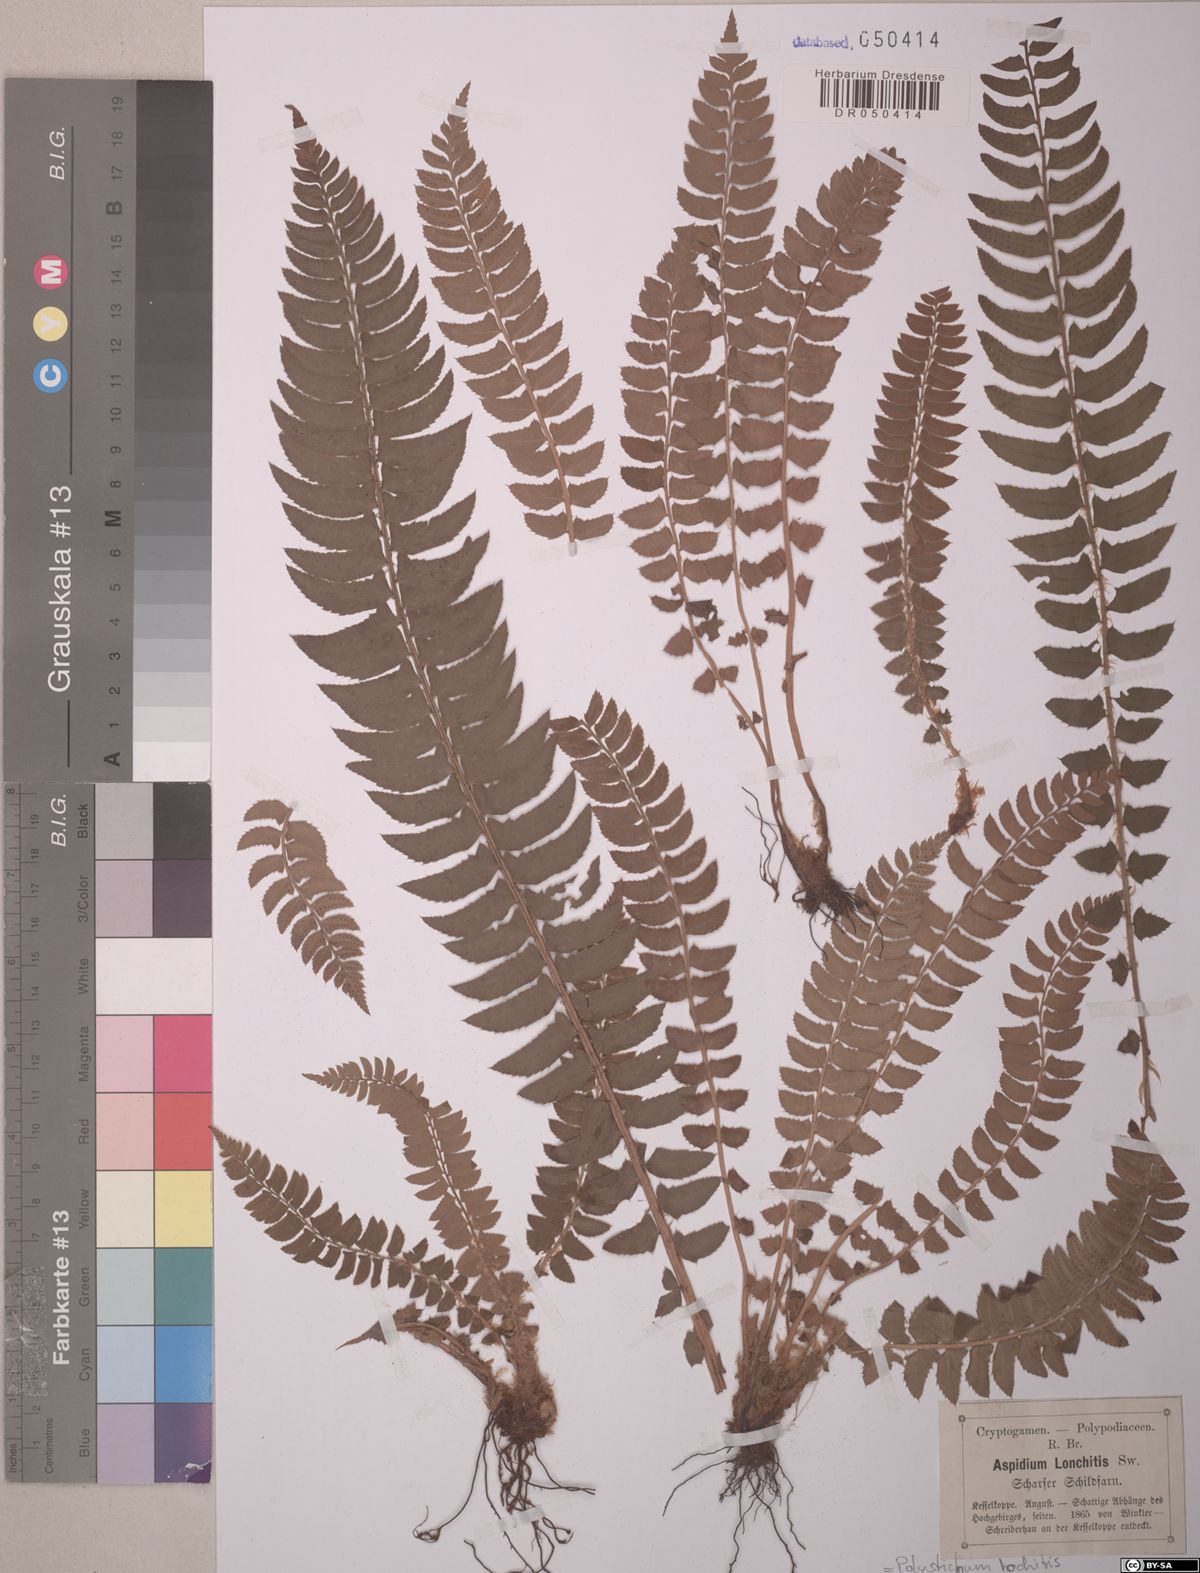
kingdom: Plantae
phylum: Tracheophyta
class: Polypodiopsida
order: Polypodiales
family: Dryopteridaceae
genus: Polystichum
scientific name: Polystichum lonchitis
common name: Holly fern
